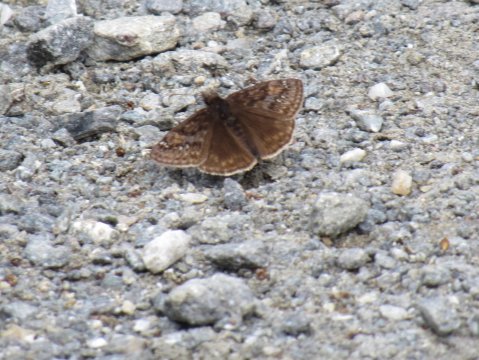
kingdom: Animalia
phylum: Arthropoda
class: Insecta
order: Lepidoptera
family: Hesperiidae
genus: Gesta
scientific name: Gesta
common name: Juvenal's Duskywing
